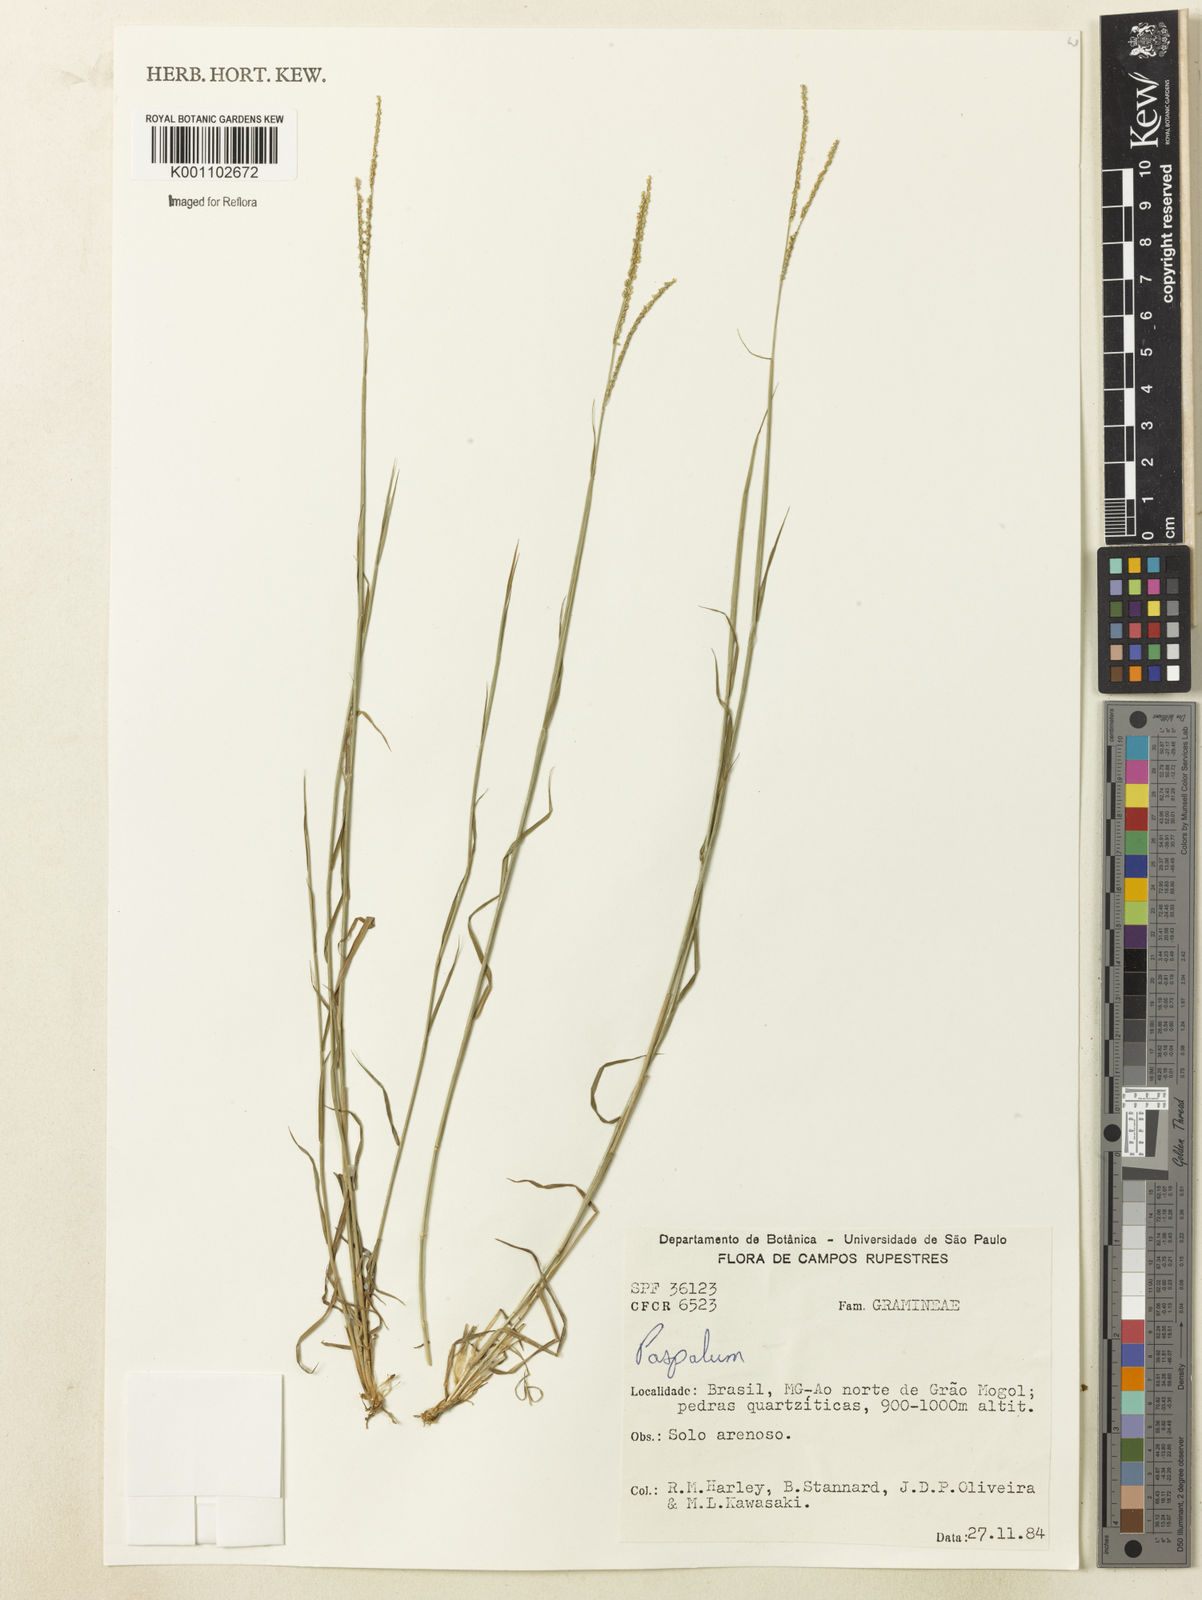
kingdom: Plantae
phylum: Tracheophyta
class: Liliopsida
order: Poales
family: Poaceae
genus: Paspalum
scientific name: Paspalum
